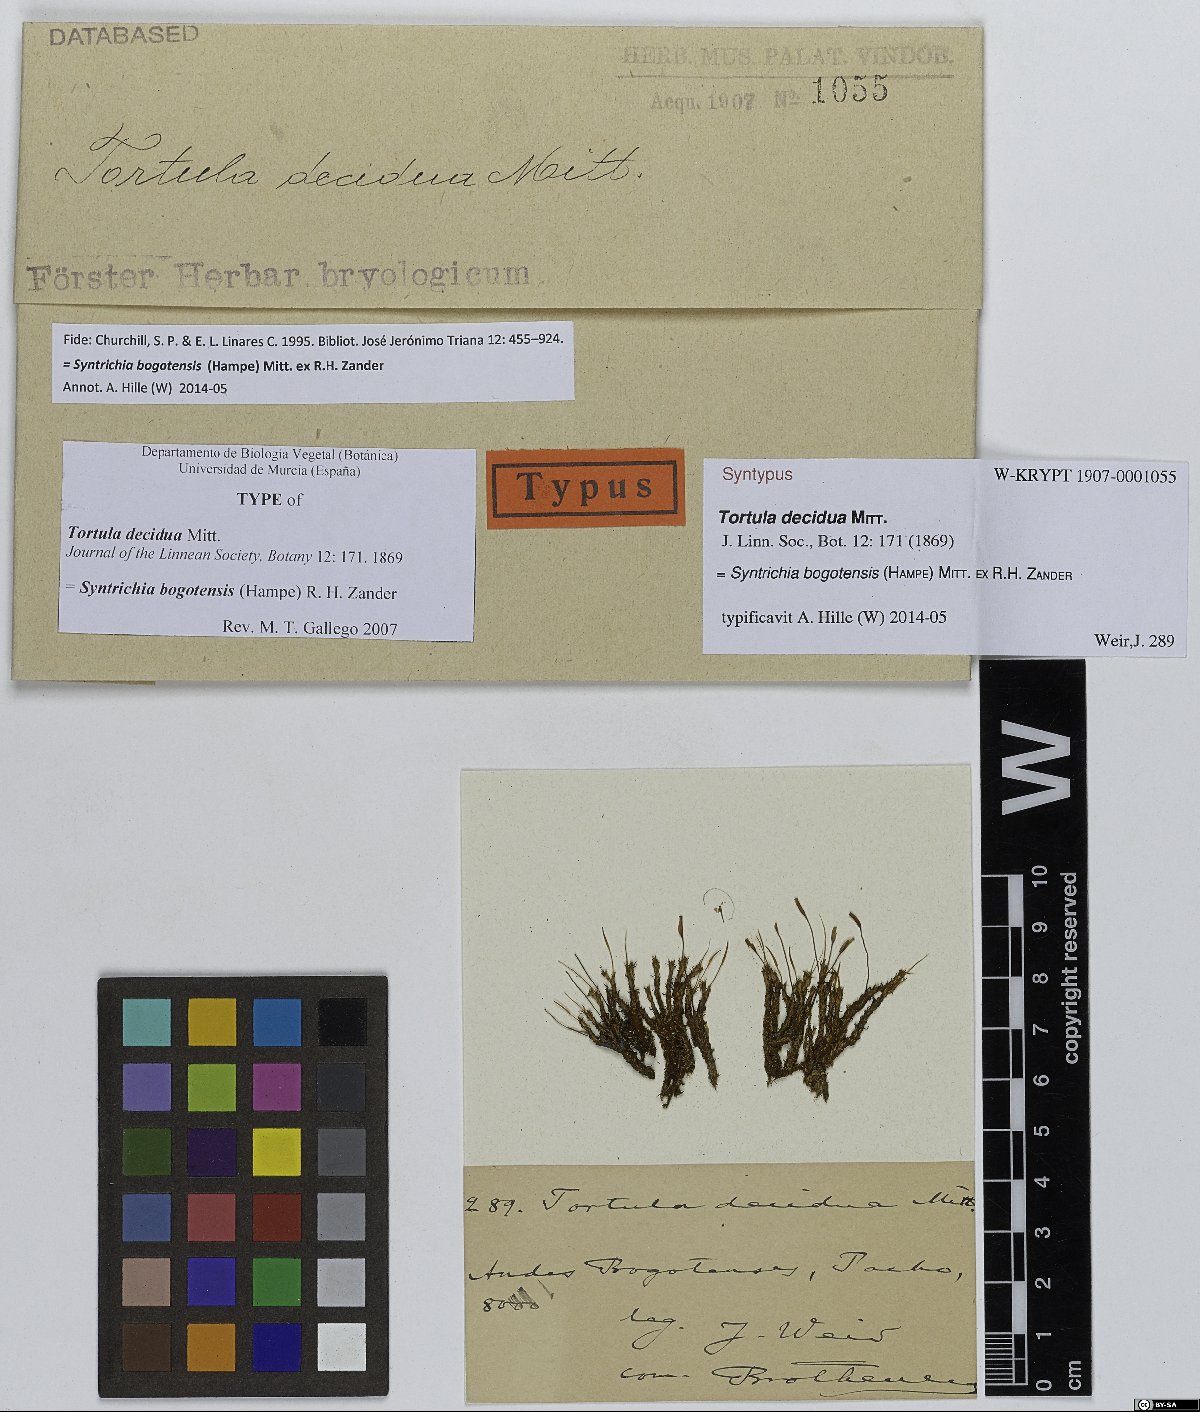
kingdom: Plantae
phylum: Bryophyta
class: Bryopsida
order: Pottiales
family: Pottiaceae
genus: Syntrichia
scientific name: Syntrichia bogotensis
